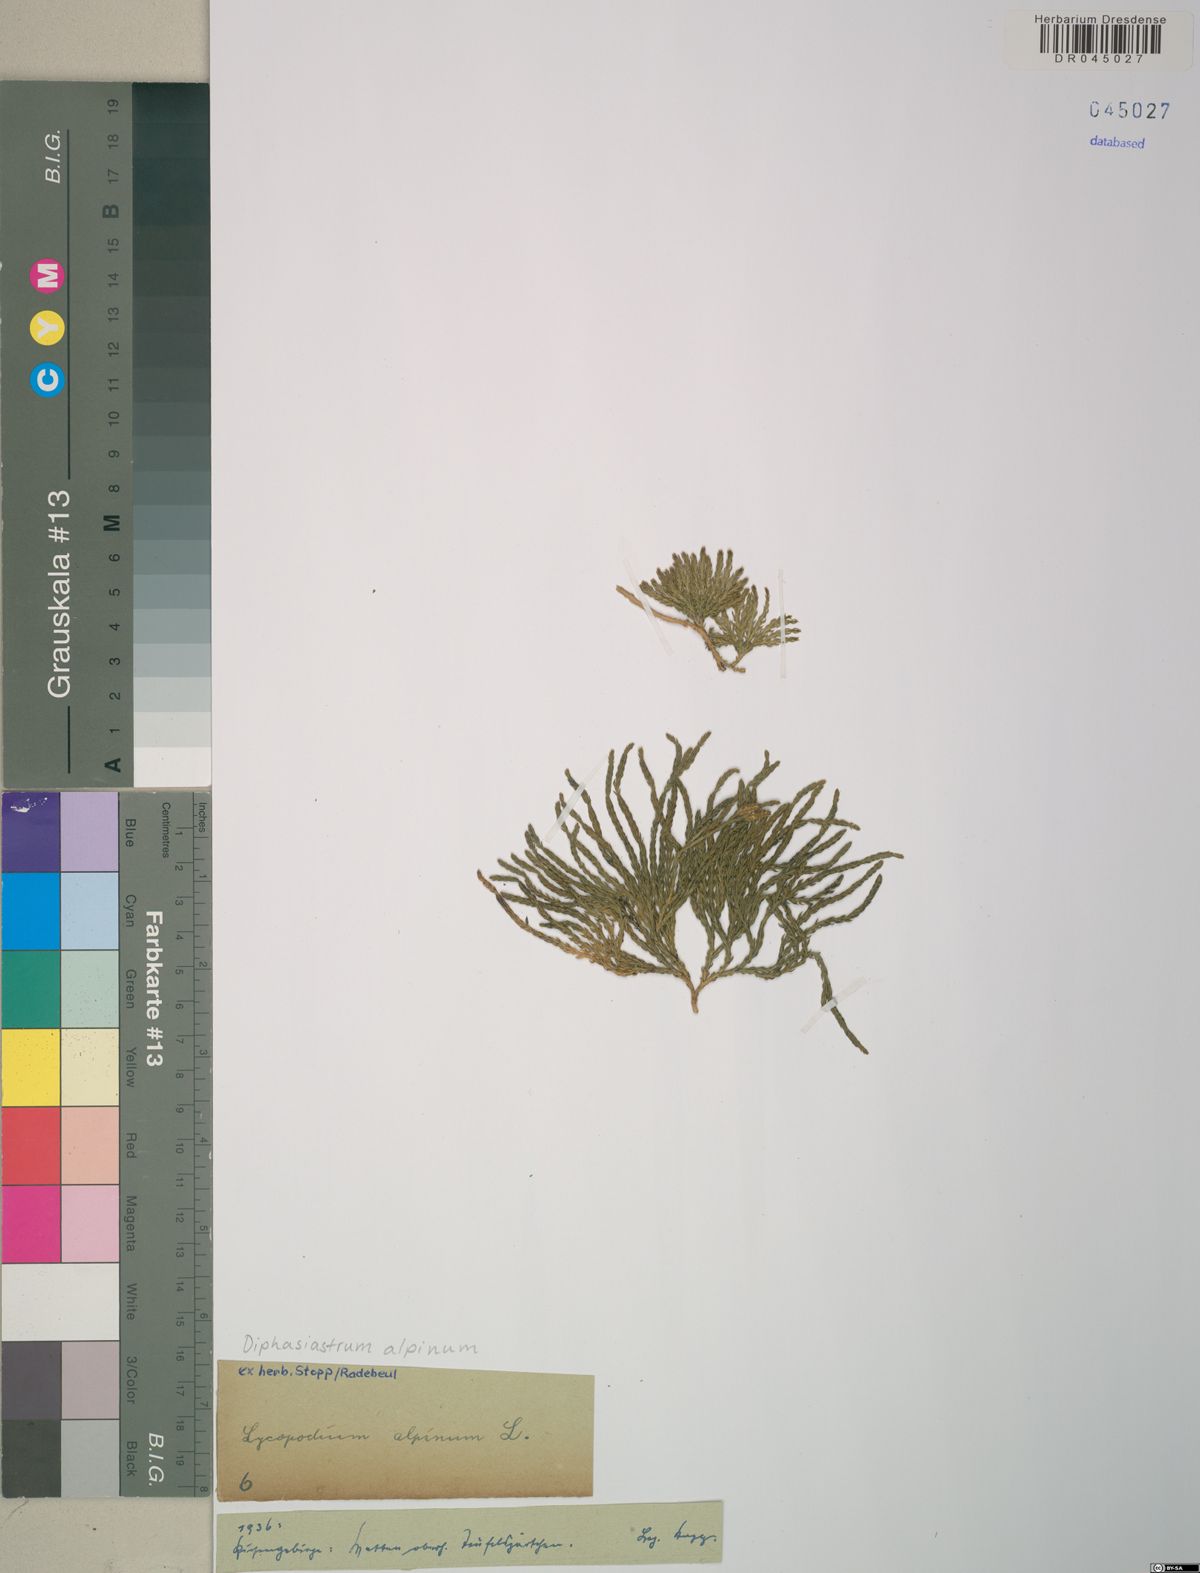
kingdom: Plantae
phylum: Tracheophyta
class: Lycopodiopsida
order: Lycopodiales
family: Lycopodiaceae
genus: Diphasiastrum
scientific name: Diphasiastrum alpinum
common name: Alpine clubmoss
